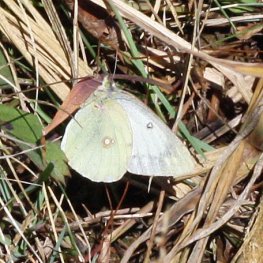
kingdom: Animalia
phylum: Arthropoda
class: Insecta
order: Lepidoptera
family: Pieridae
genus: Colias
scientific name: Colias philodice
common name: Clouded Sulphur
